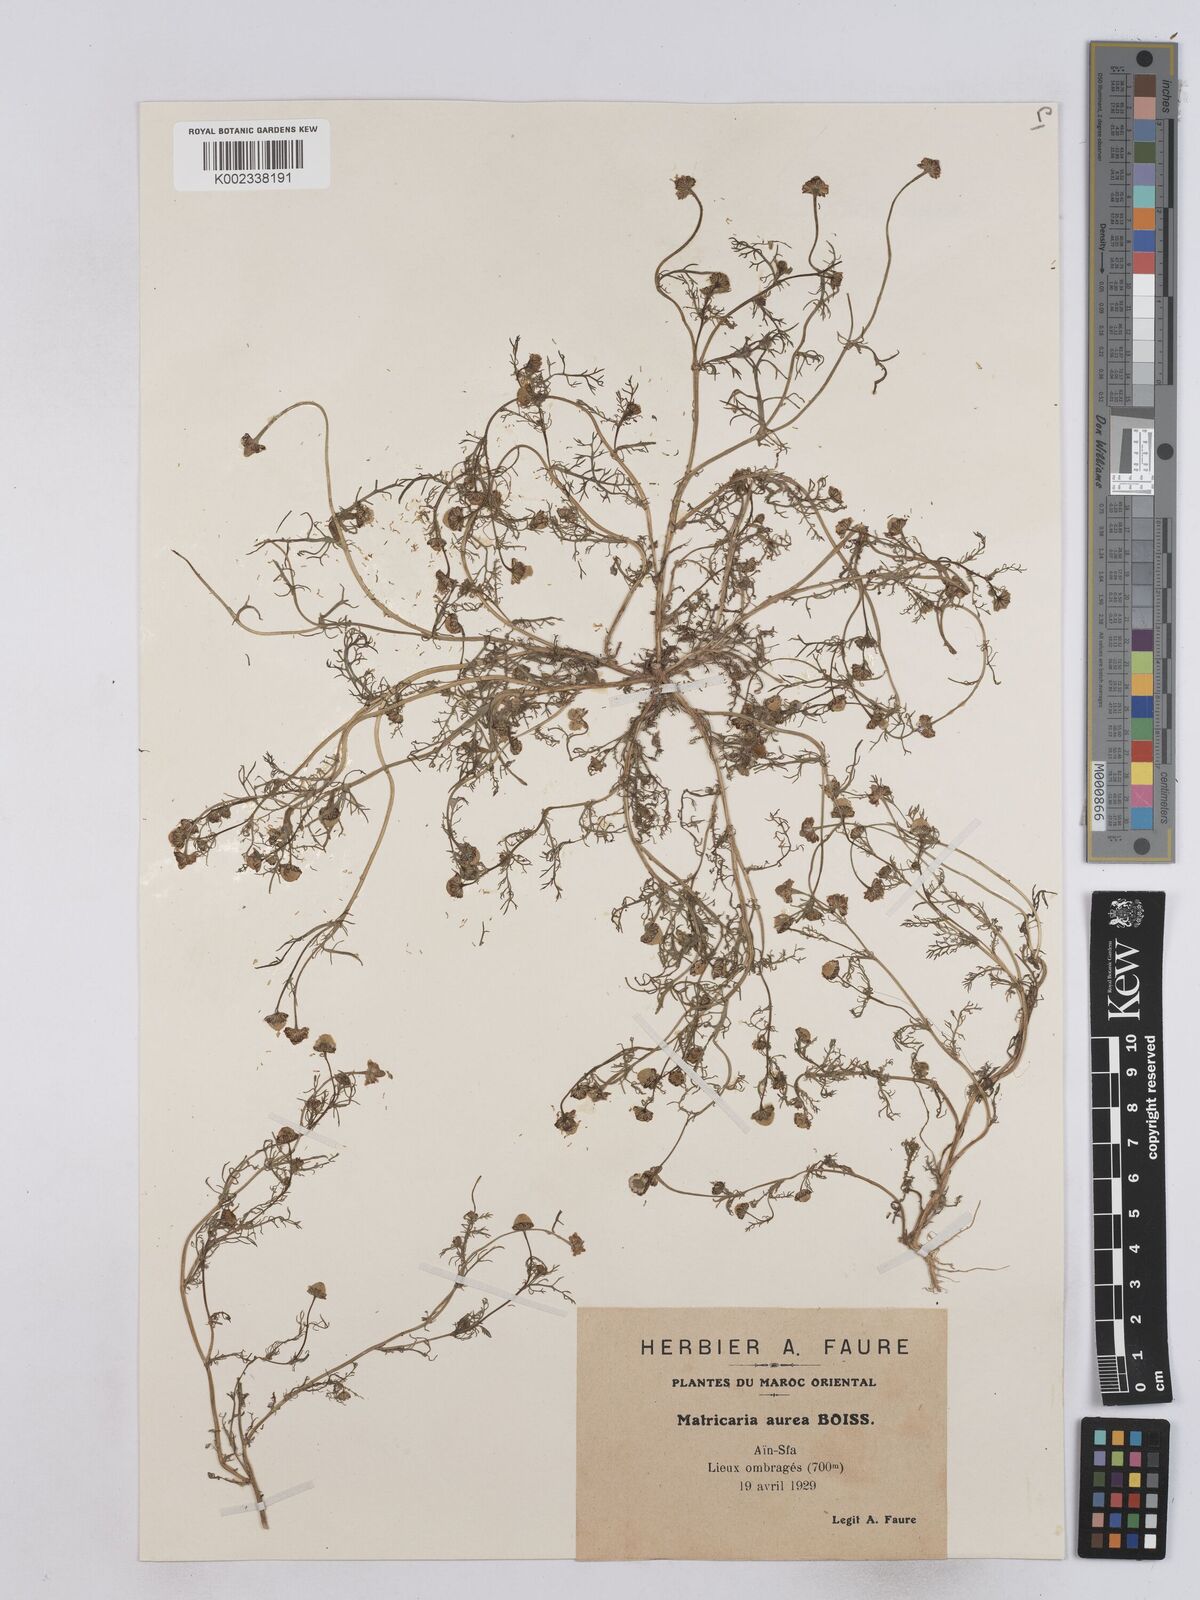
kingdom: Plantae
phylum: Tracheophyta
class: Magnoliopsida
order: Asterales
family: Asteraceae
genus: Matricaria
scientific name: Matricaria aurea
